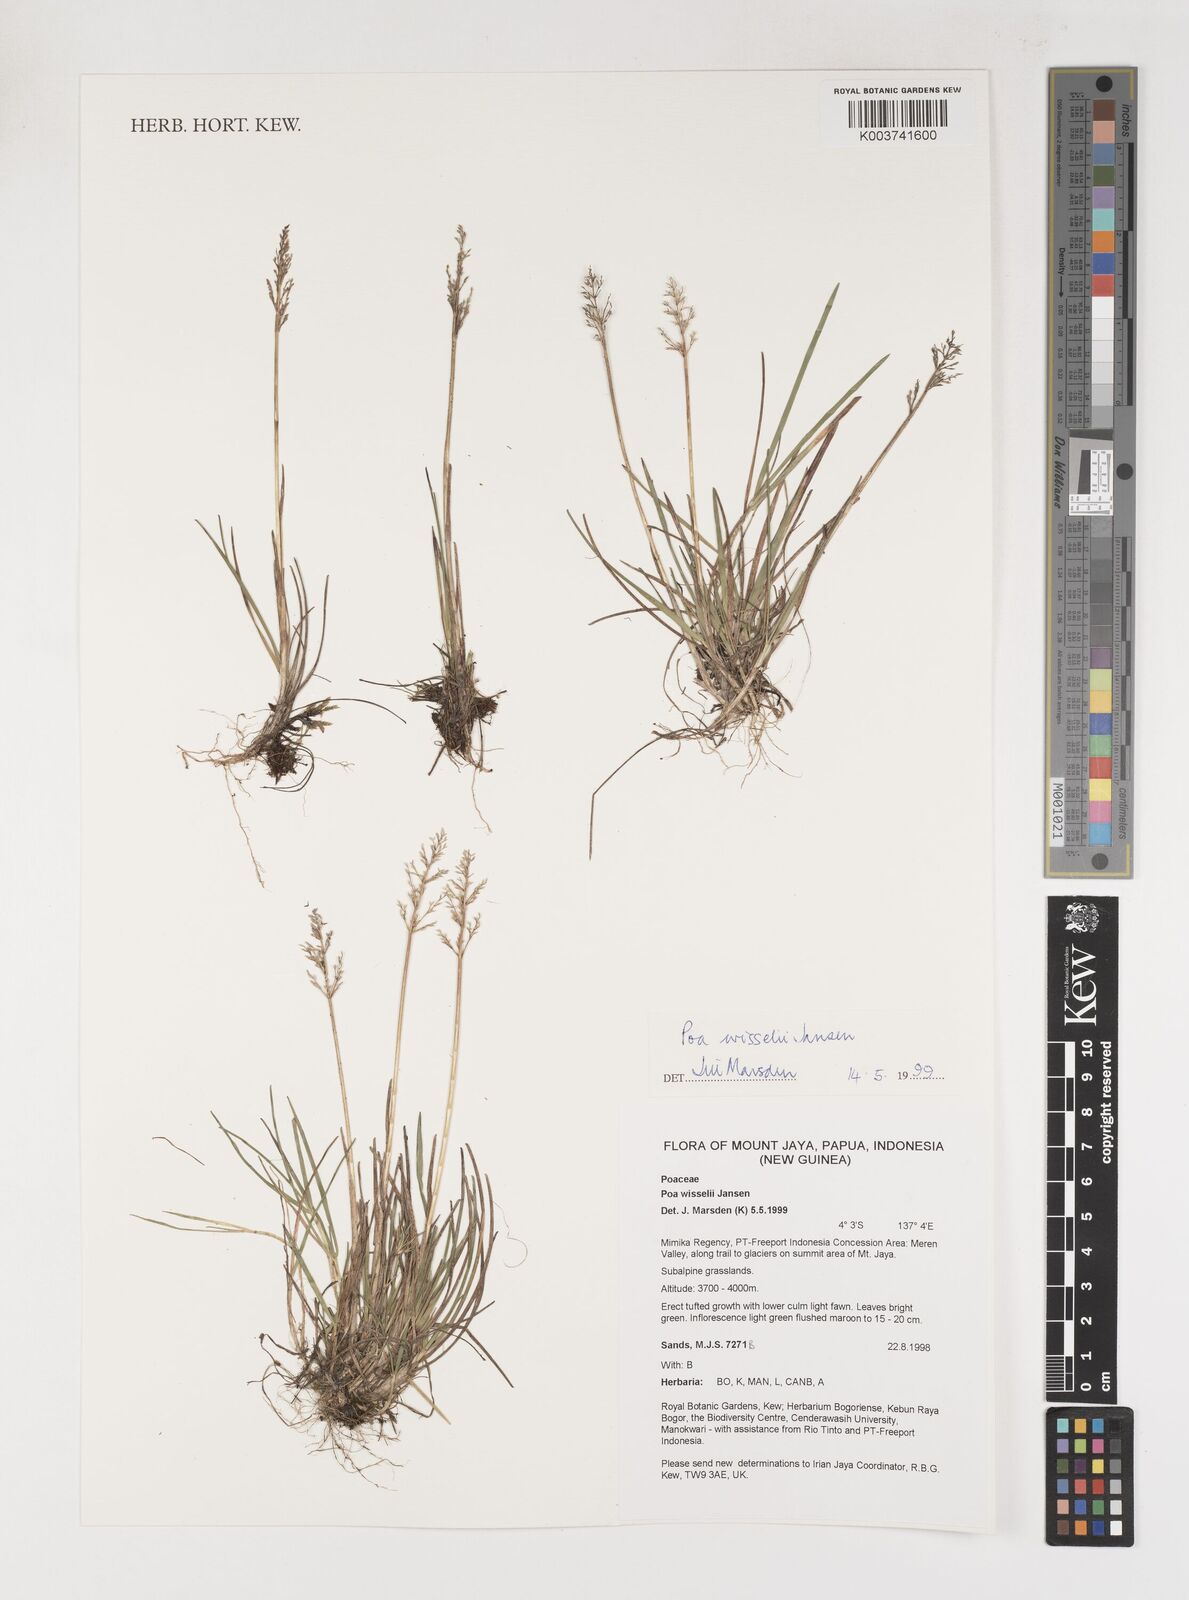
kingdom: Plantae
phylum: Tracheophyta
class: Liliopsida
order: Poales
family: Poaceae
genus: Poa
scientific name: Poa wisselii
